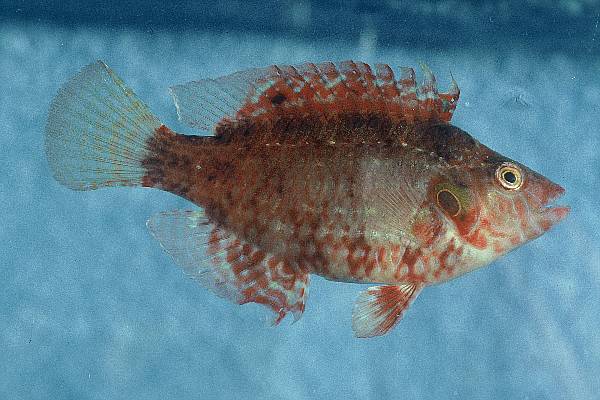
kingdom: Animalia
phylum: Chordata
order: Perciformes
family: Labridae
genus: Pteragogus
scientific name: Pteragogus flagellifer
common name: Cocktail wrasse
